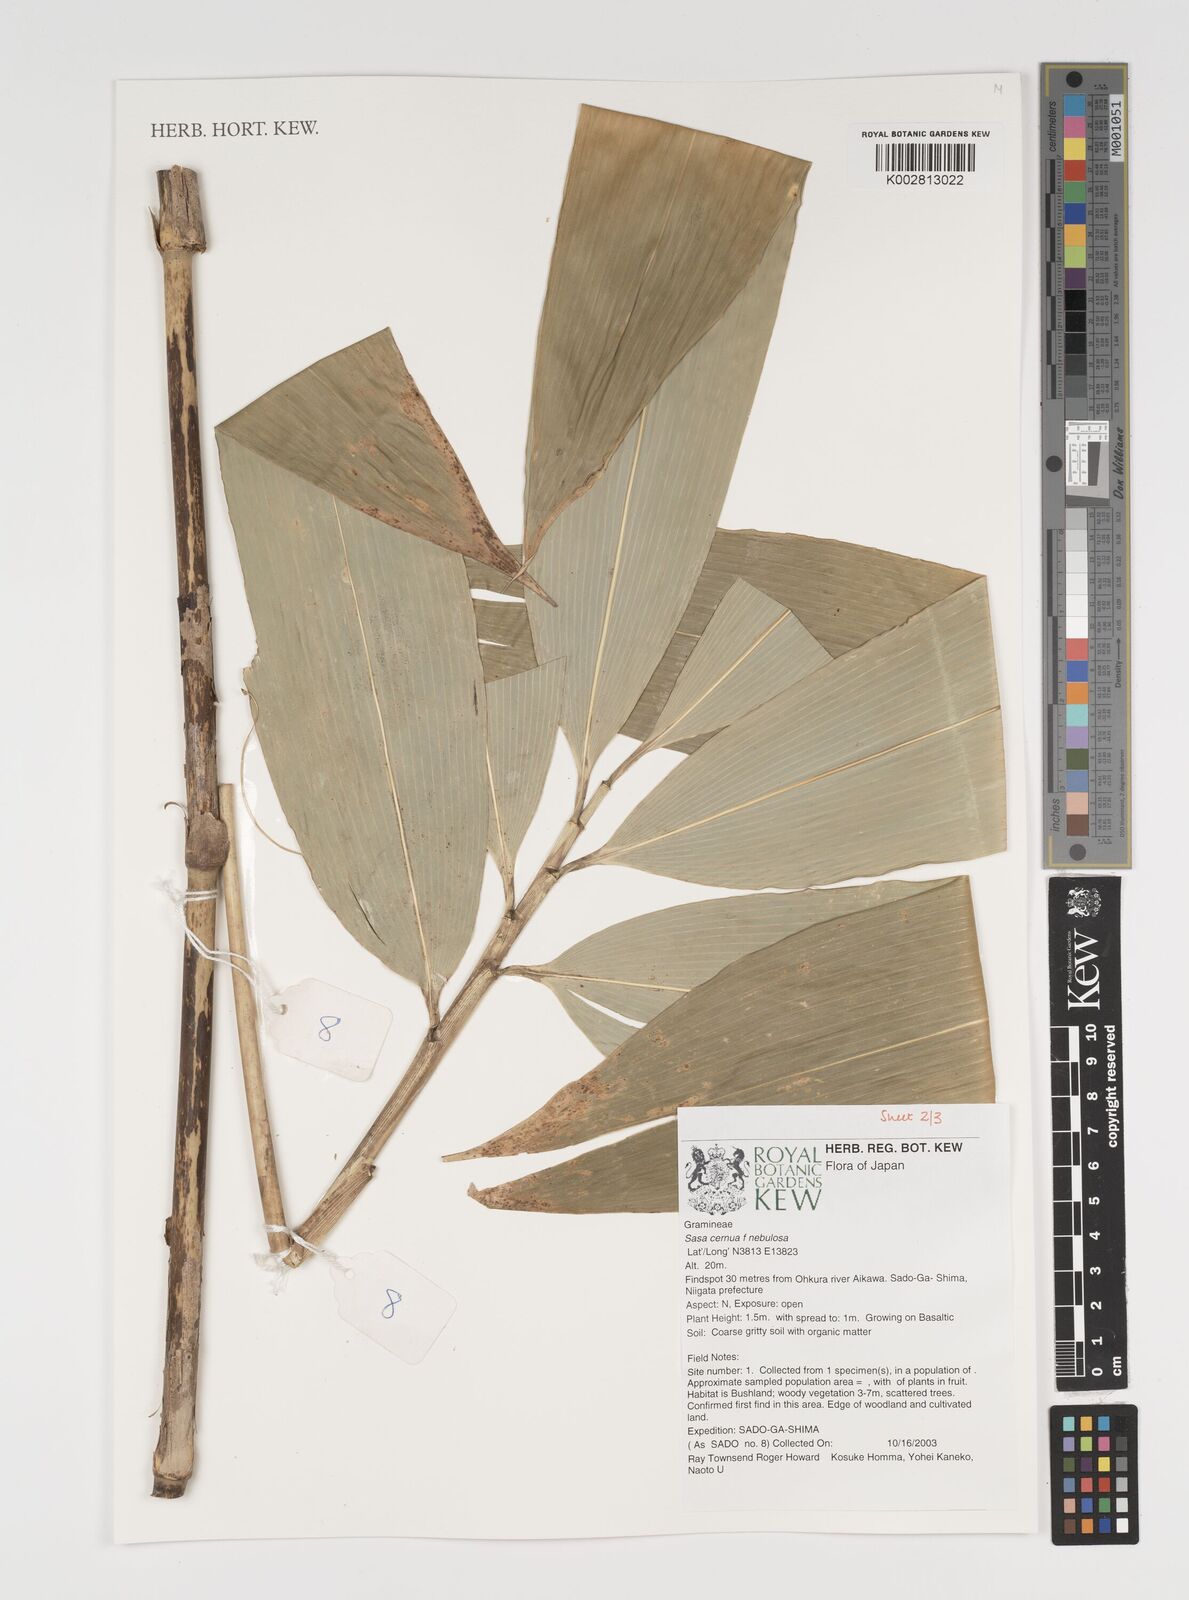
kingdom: Plantae
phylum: Tracheophyta
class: Liliopsida
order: Poales
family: Poaceae
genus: Sasa
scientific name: Sasa cernua
